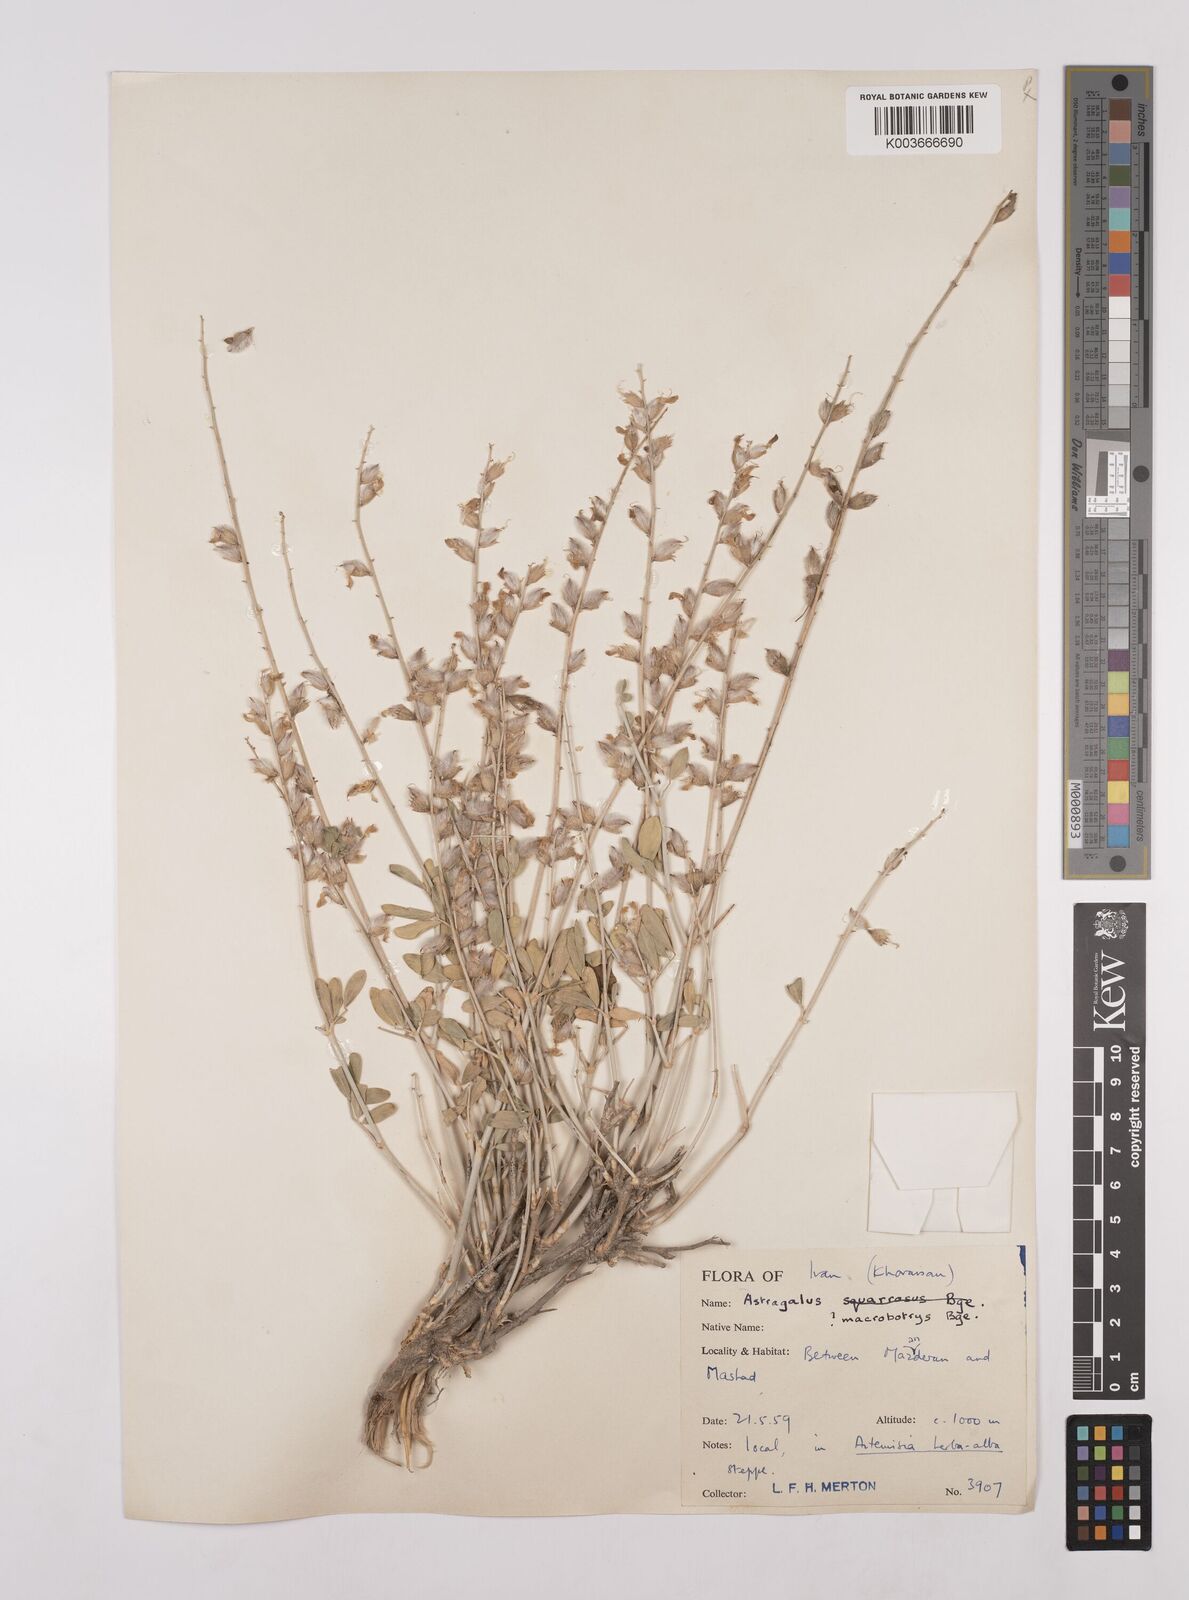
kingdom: Plantae
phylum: Tracheophyta
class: Magnoliopsida
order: Fabales
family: Fabaceae
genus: Astragalus
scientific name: Astragalus macrobotrys
